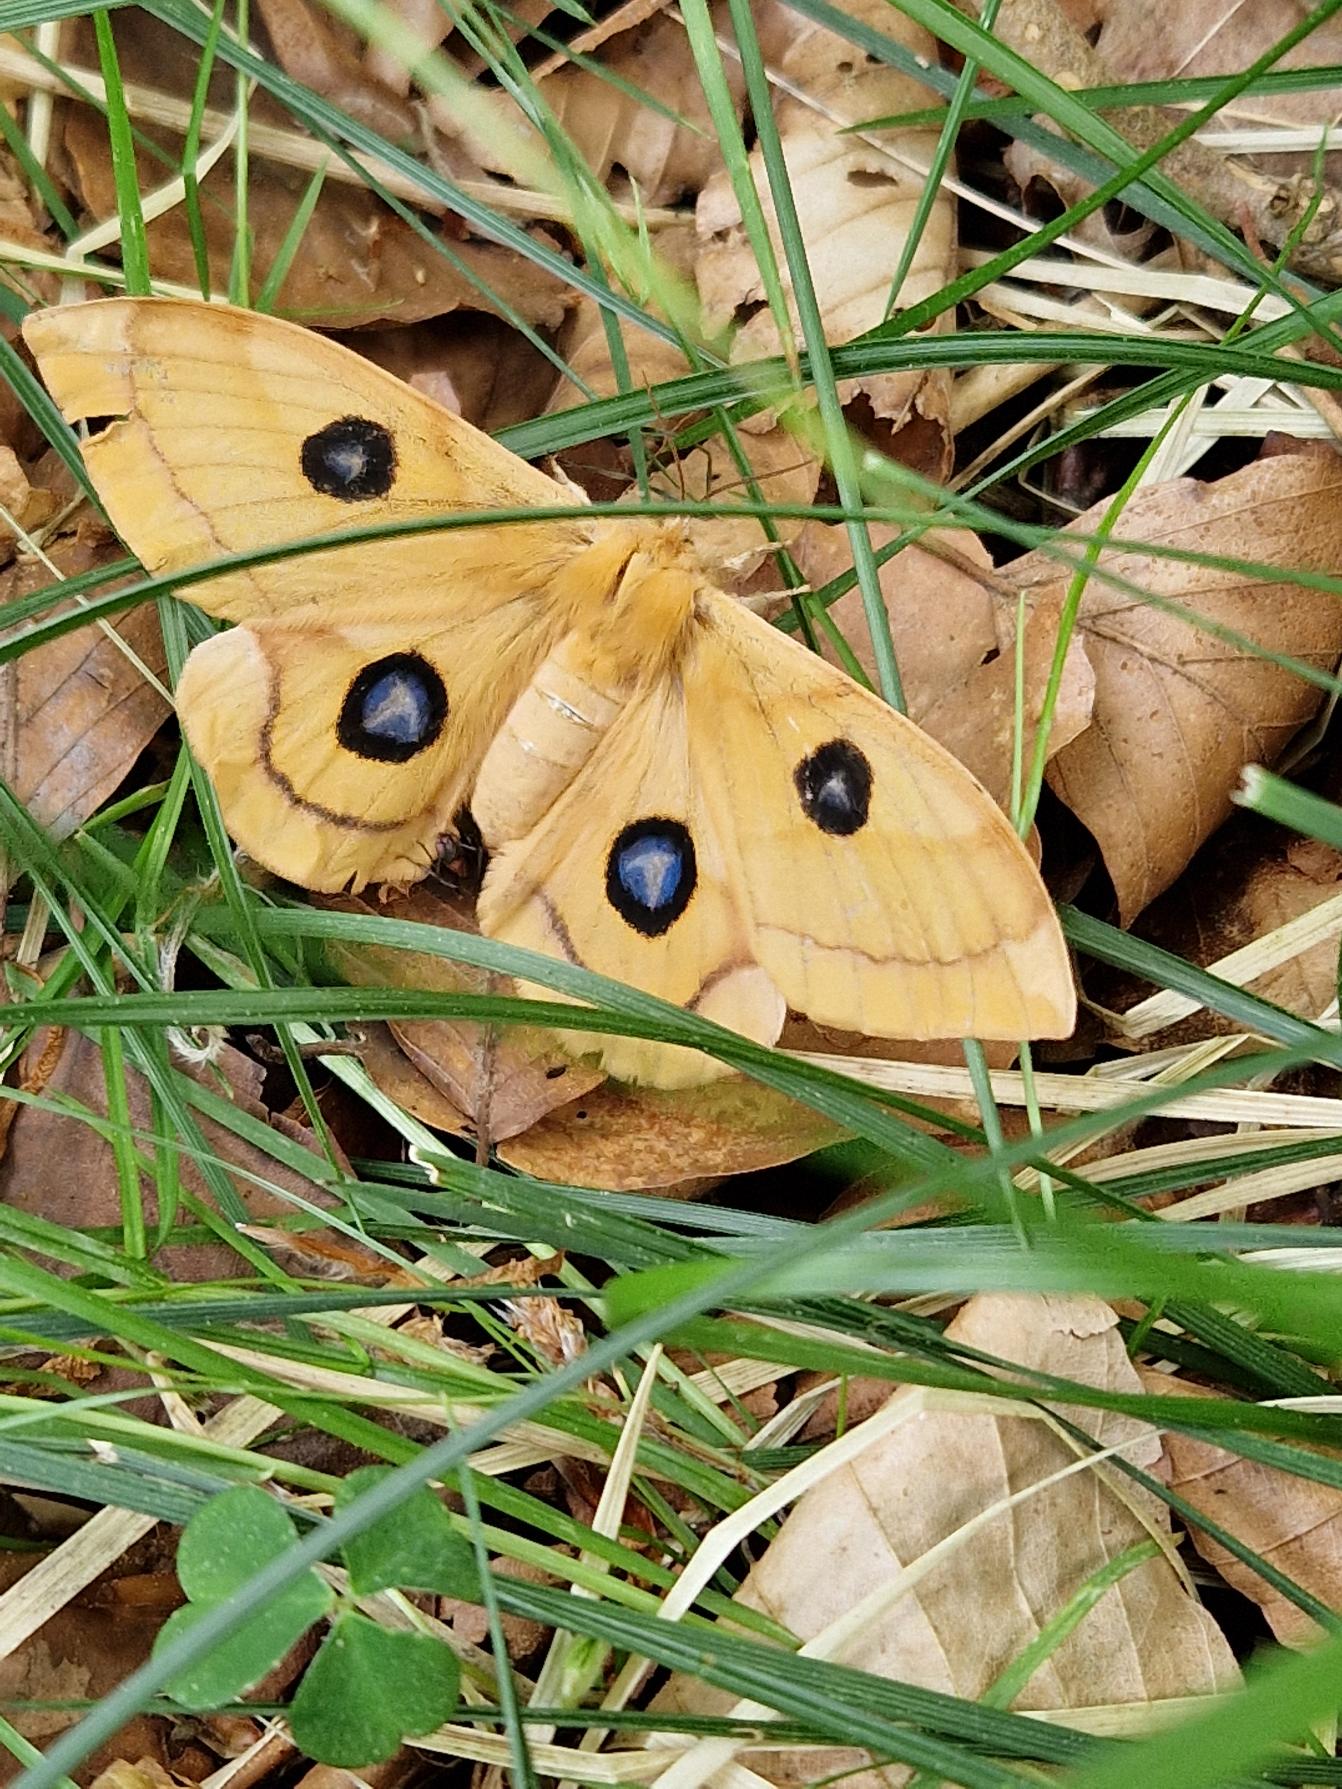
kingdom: Animalia
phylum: Arthropoda
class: Insecta
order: Lepidoptera
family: Saturniidae
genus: Aglia
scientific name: Aglia tau
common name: Sømplet
